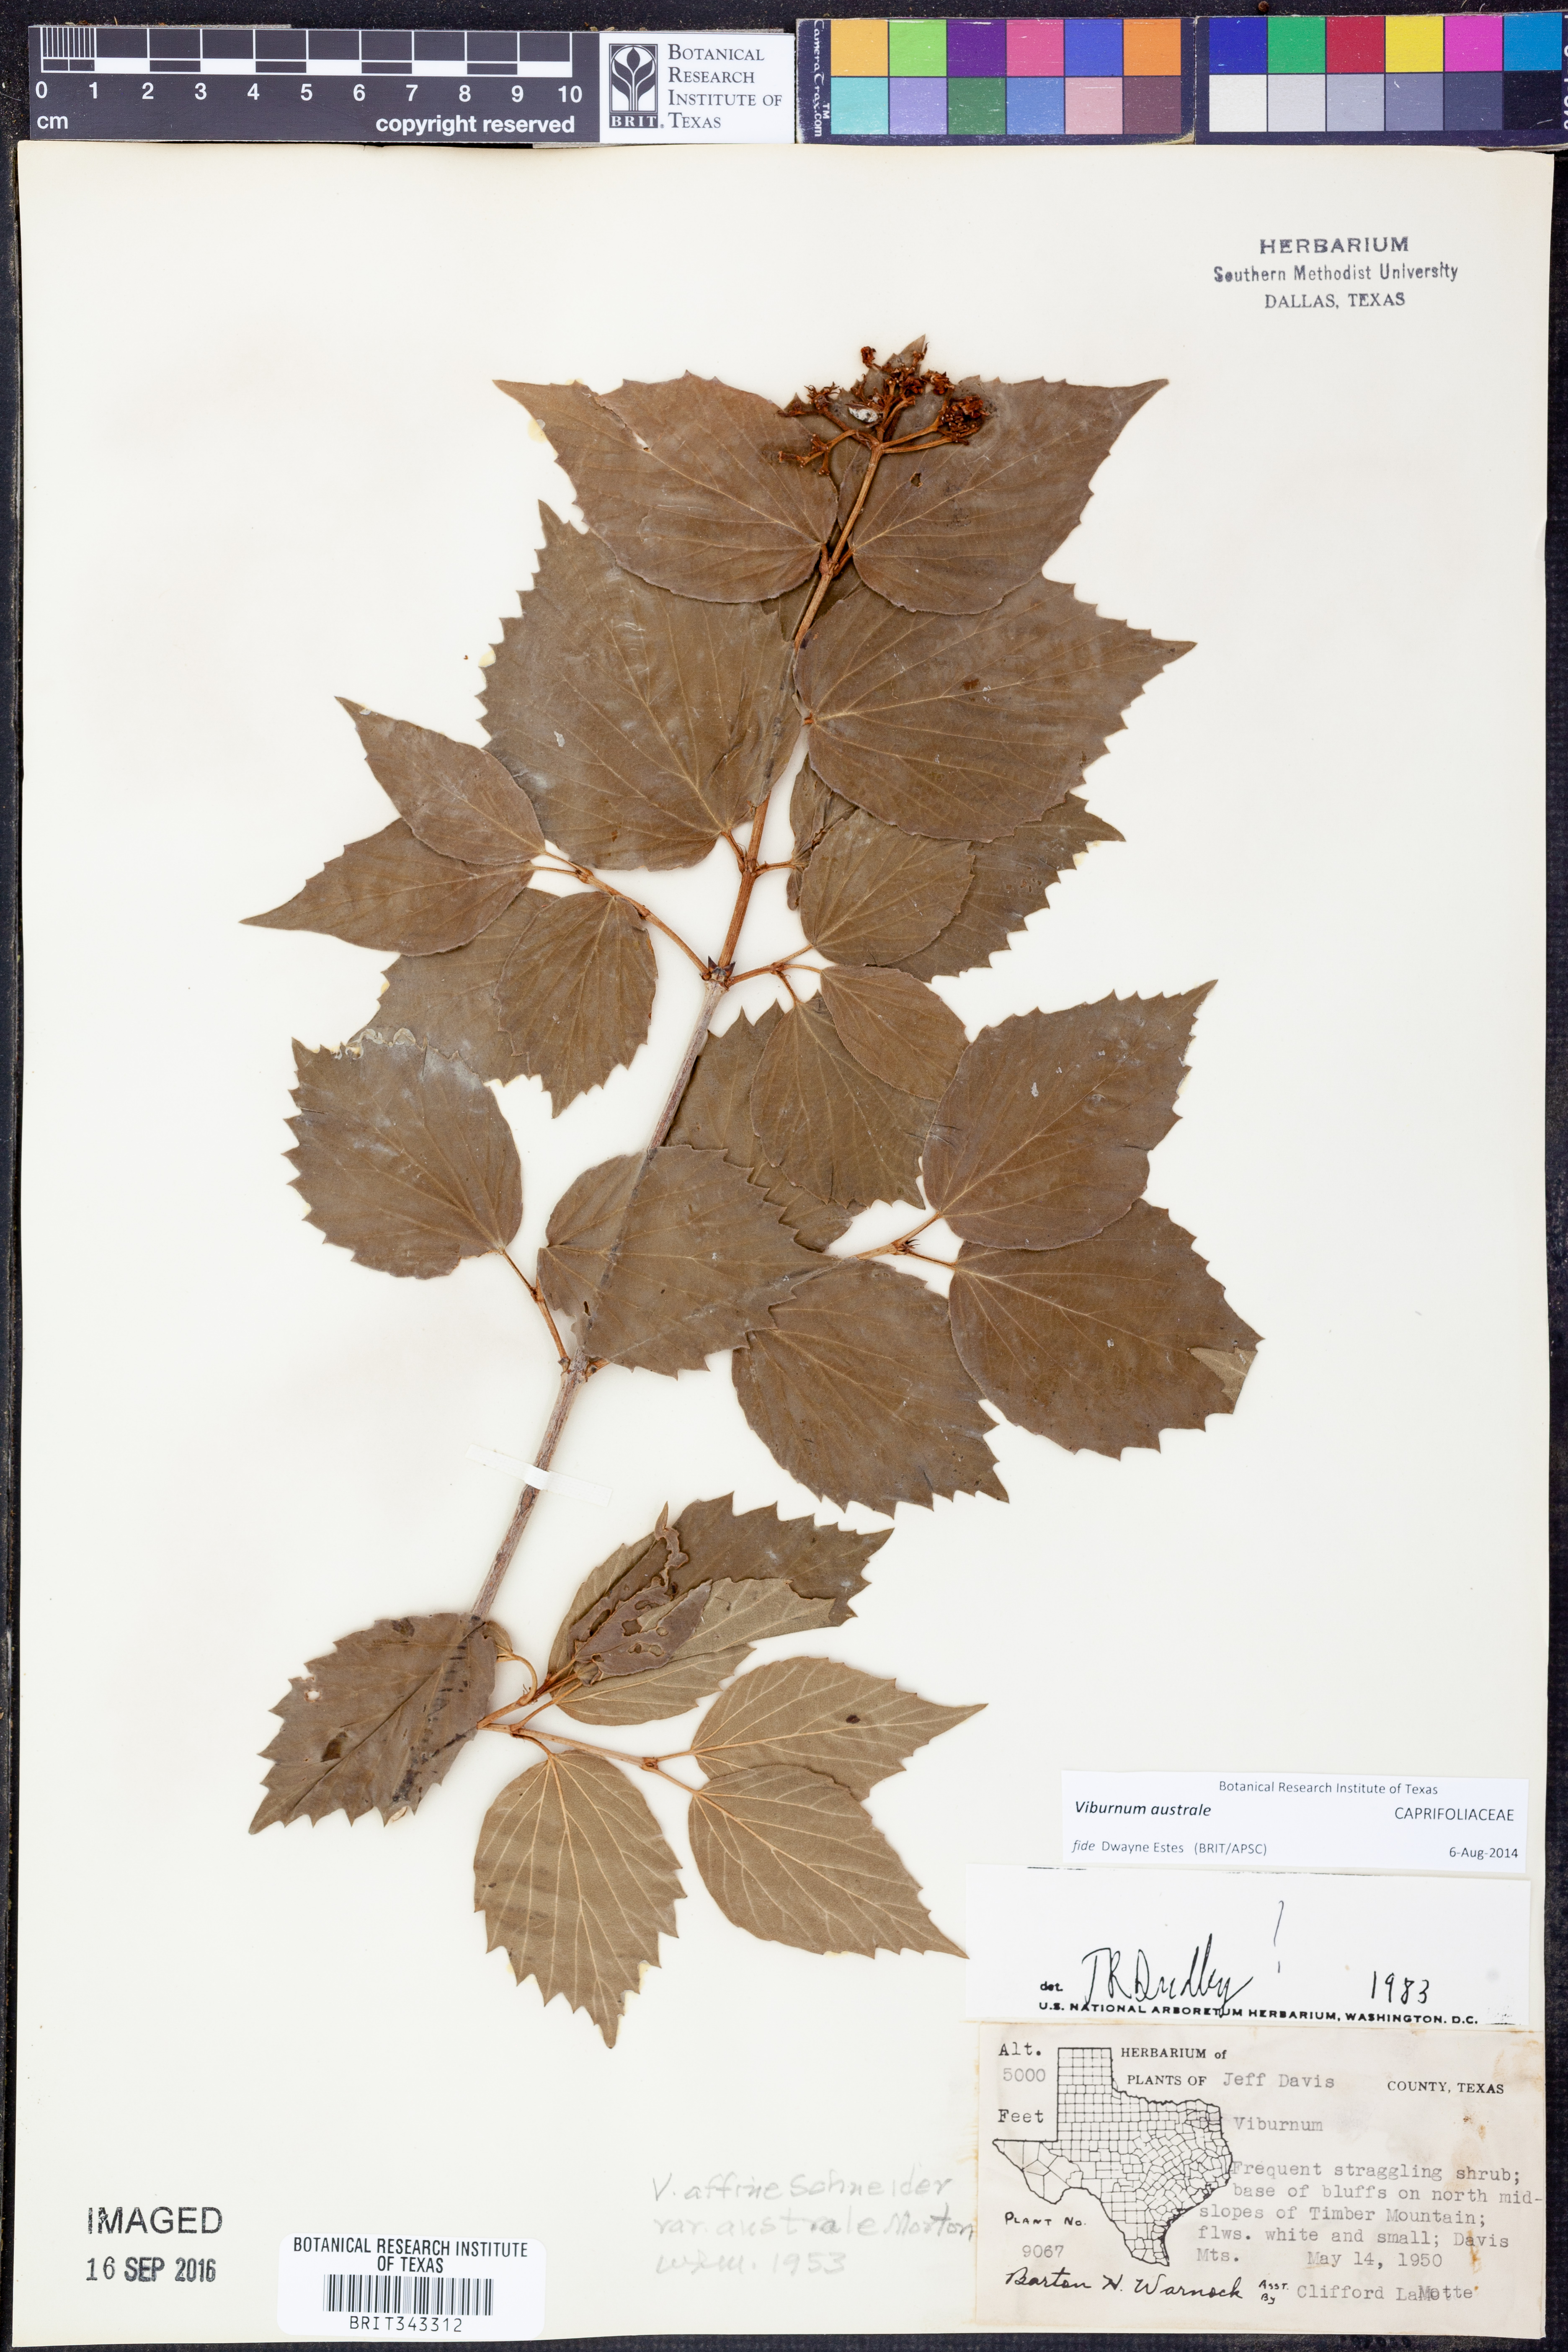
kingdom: Plantae
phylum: Tracheophyta
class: Magnoliopsida
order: Dipsacales
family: Viburnaceae
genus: Viburnum
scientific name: Viburnum australe
